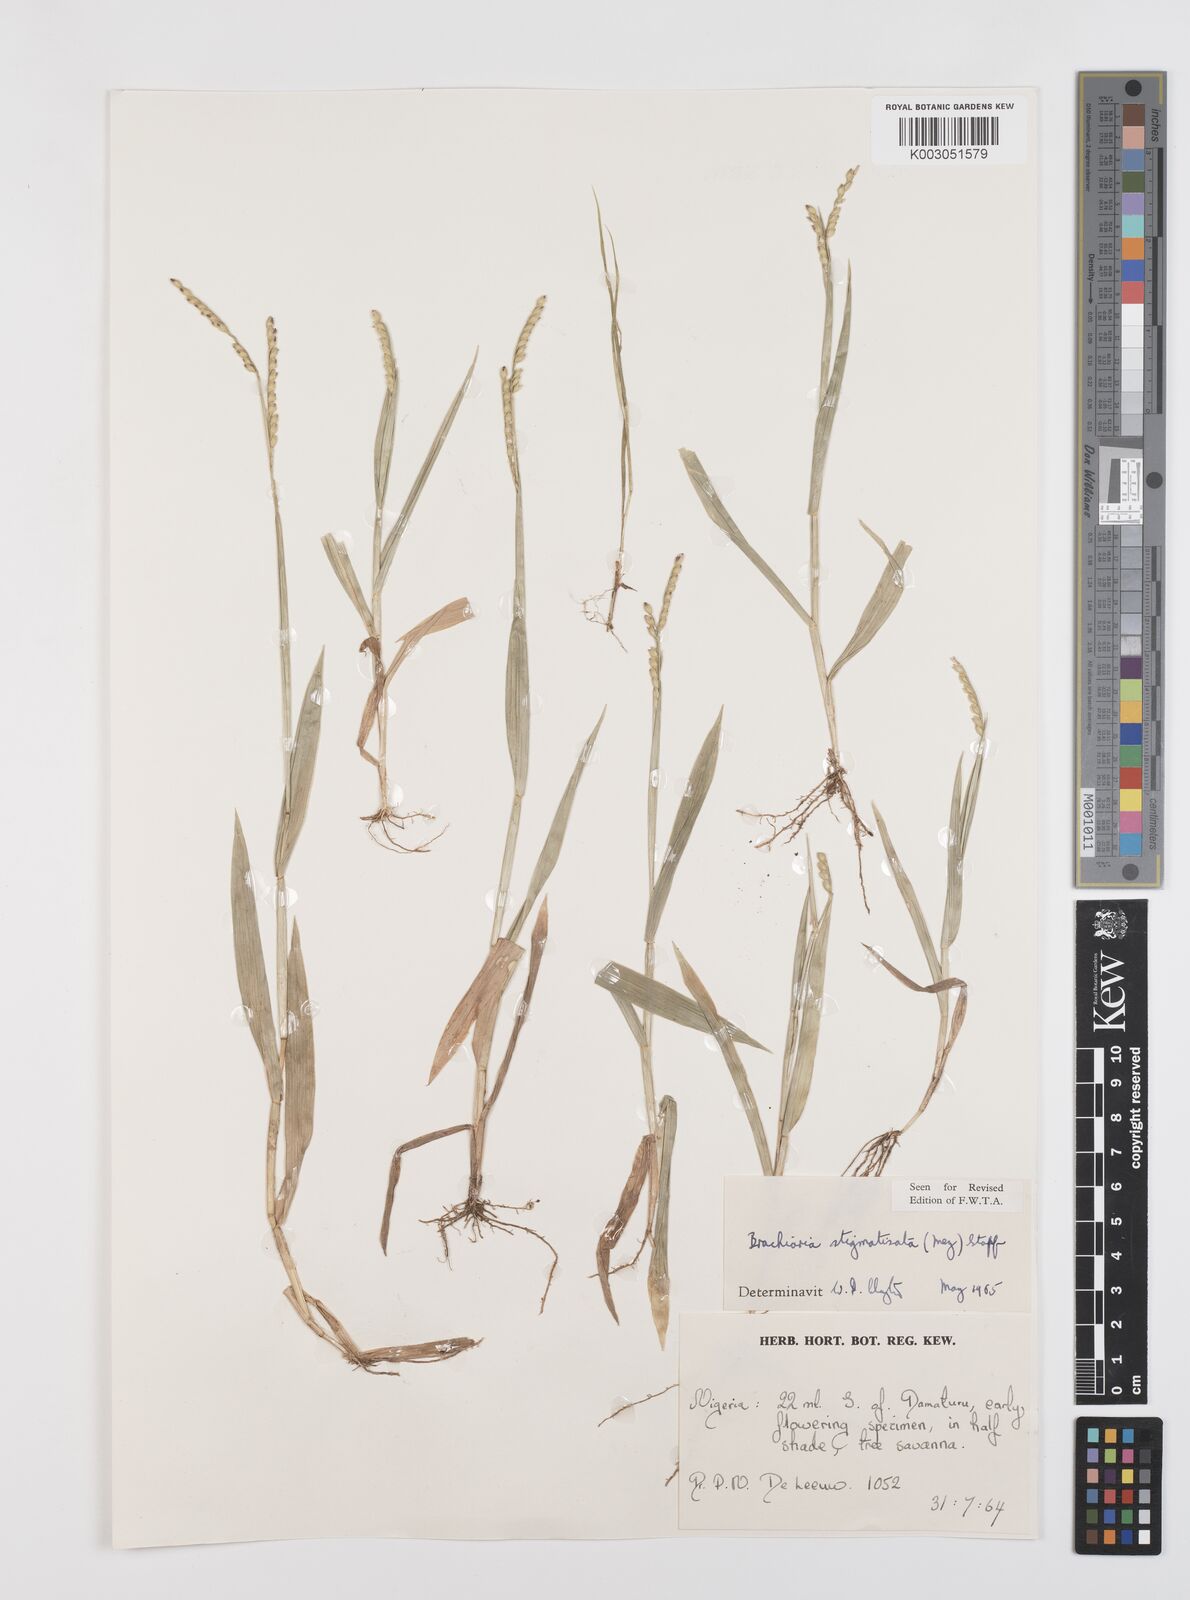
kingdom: Plantae
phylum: Tracheophyta
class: Liliopsida
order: Poales
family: Poaceae
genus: Urochloa
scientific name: Urochloa stigmatisata
